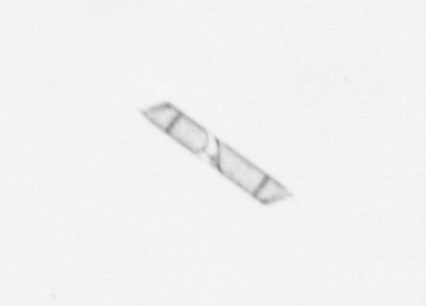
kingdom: Chromista
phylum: Ochrophyta
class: Bacillariophyceae
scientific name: Bacillariophyceae
